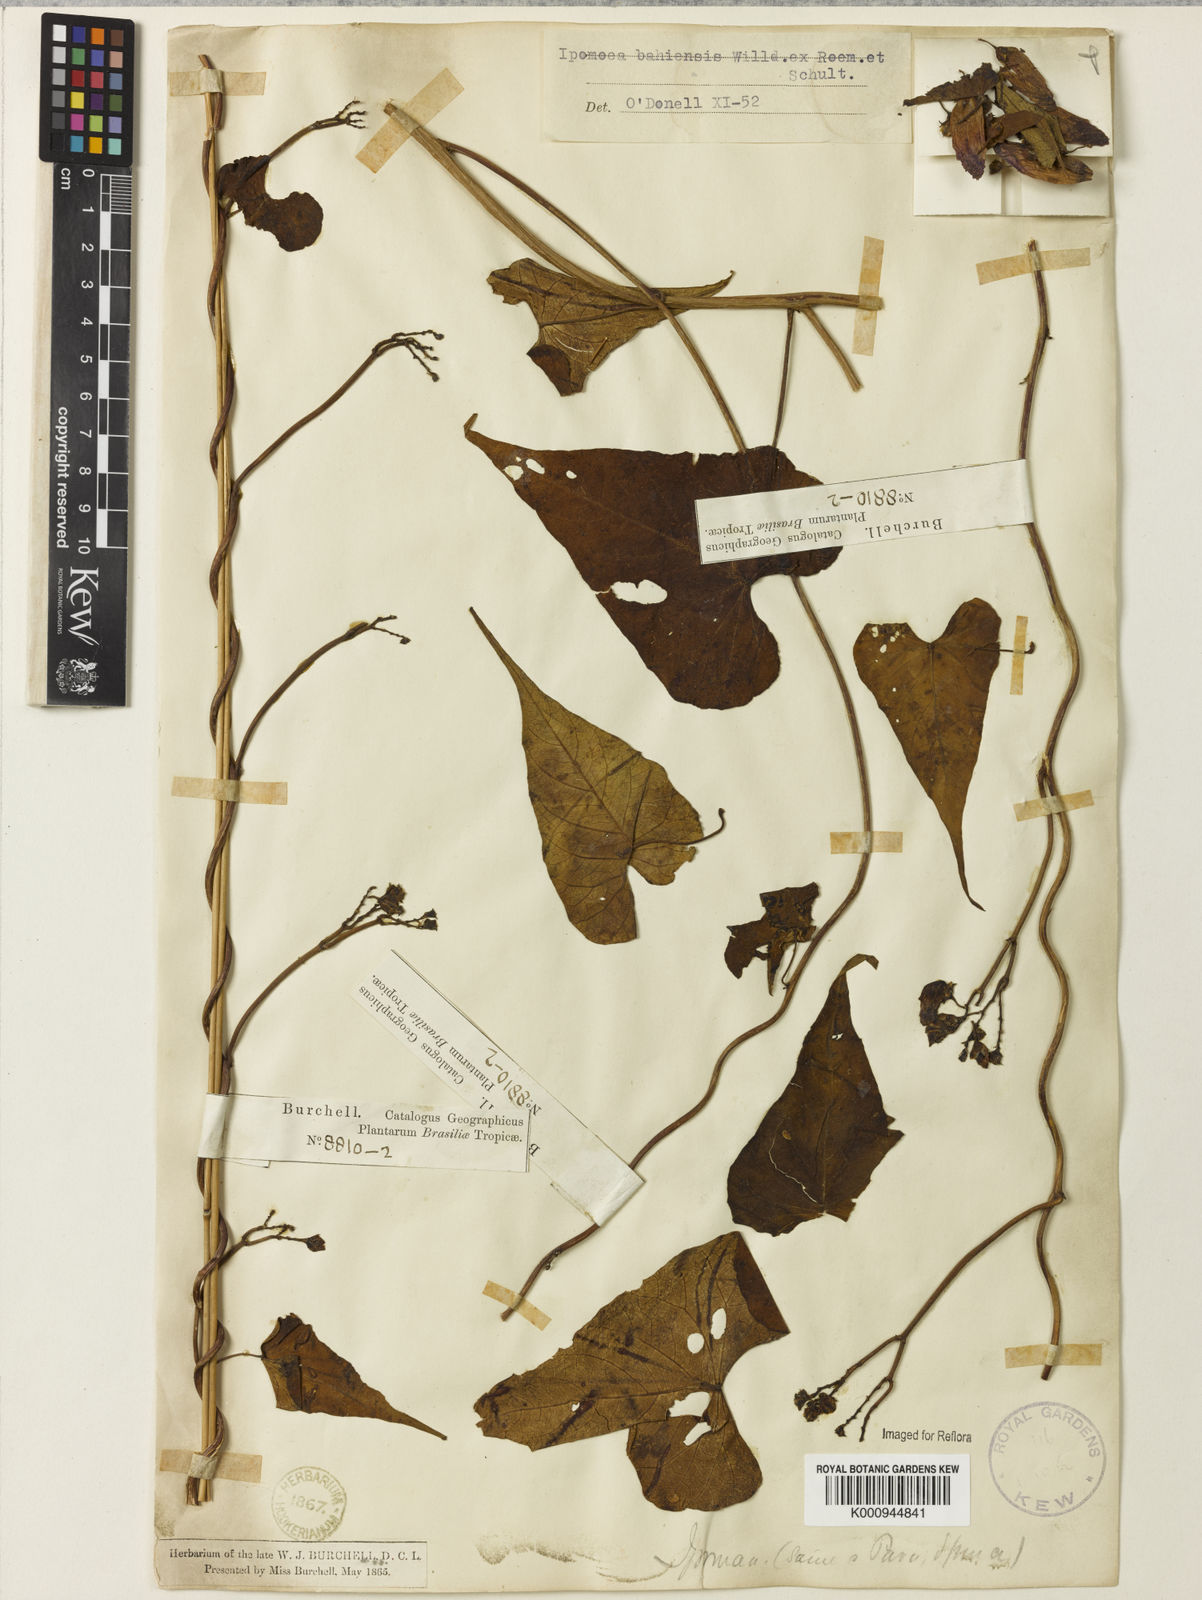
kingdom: Plantae
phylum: Tracheophyta
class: Magnoliopsida
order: Solanales
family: Convolvulaceae
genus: Ipomoea
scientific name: Ipomoea
